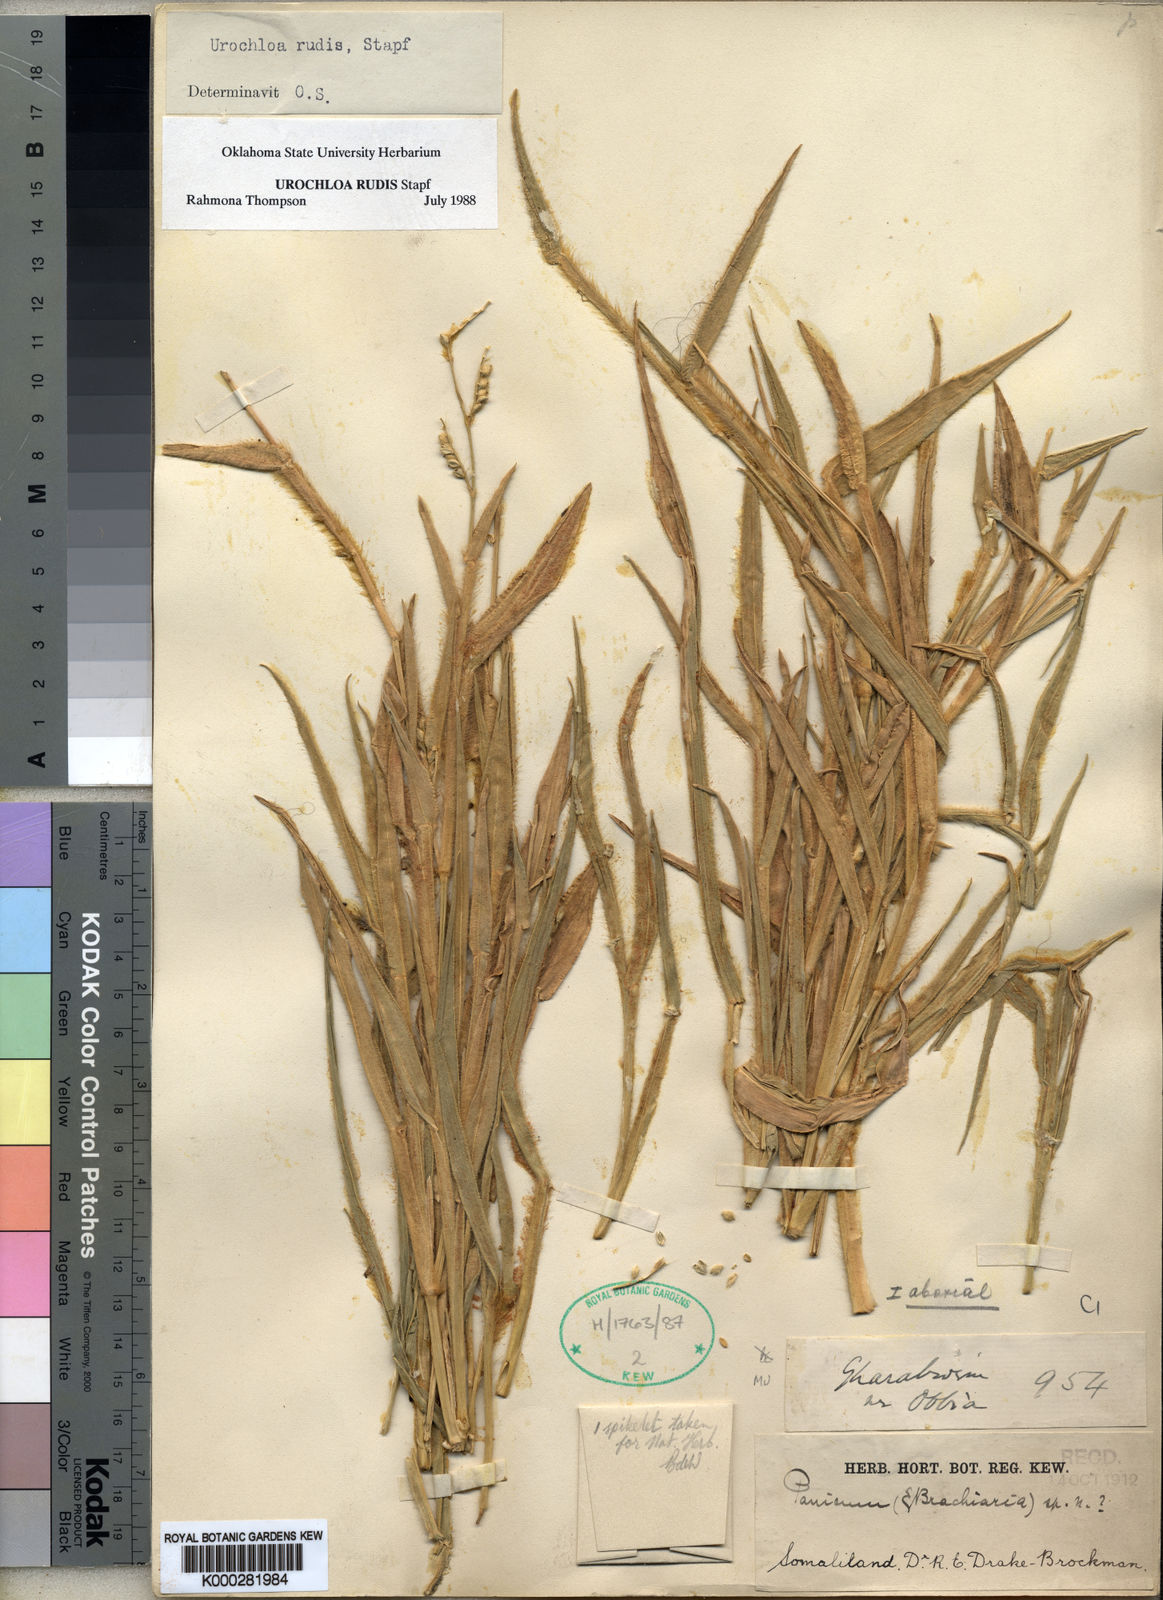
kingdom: Plantae
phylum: Tracheophyta
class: Liliopsida
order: Poales
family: Poaceae
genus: Urochloa
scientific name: Urochloa rudis
